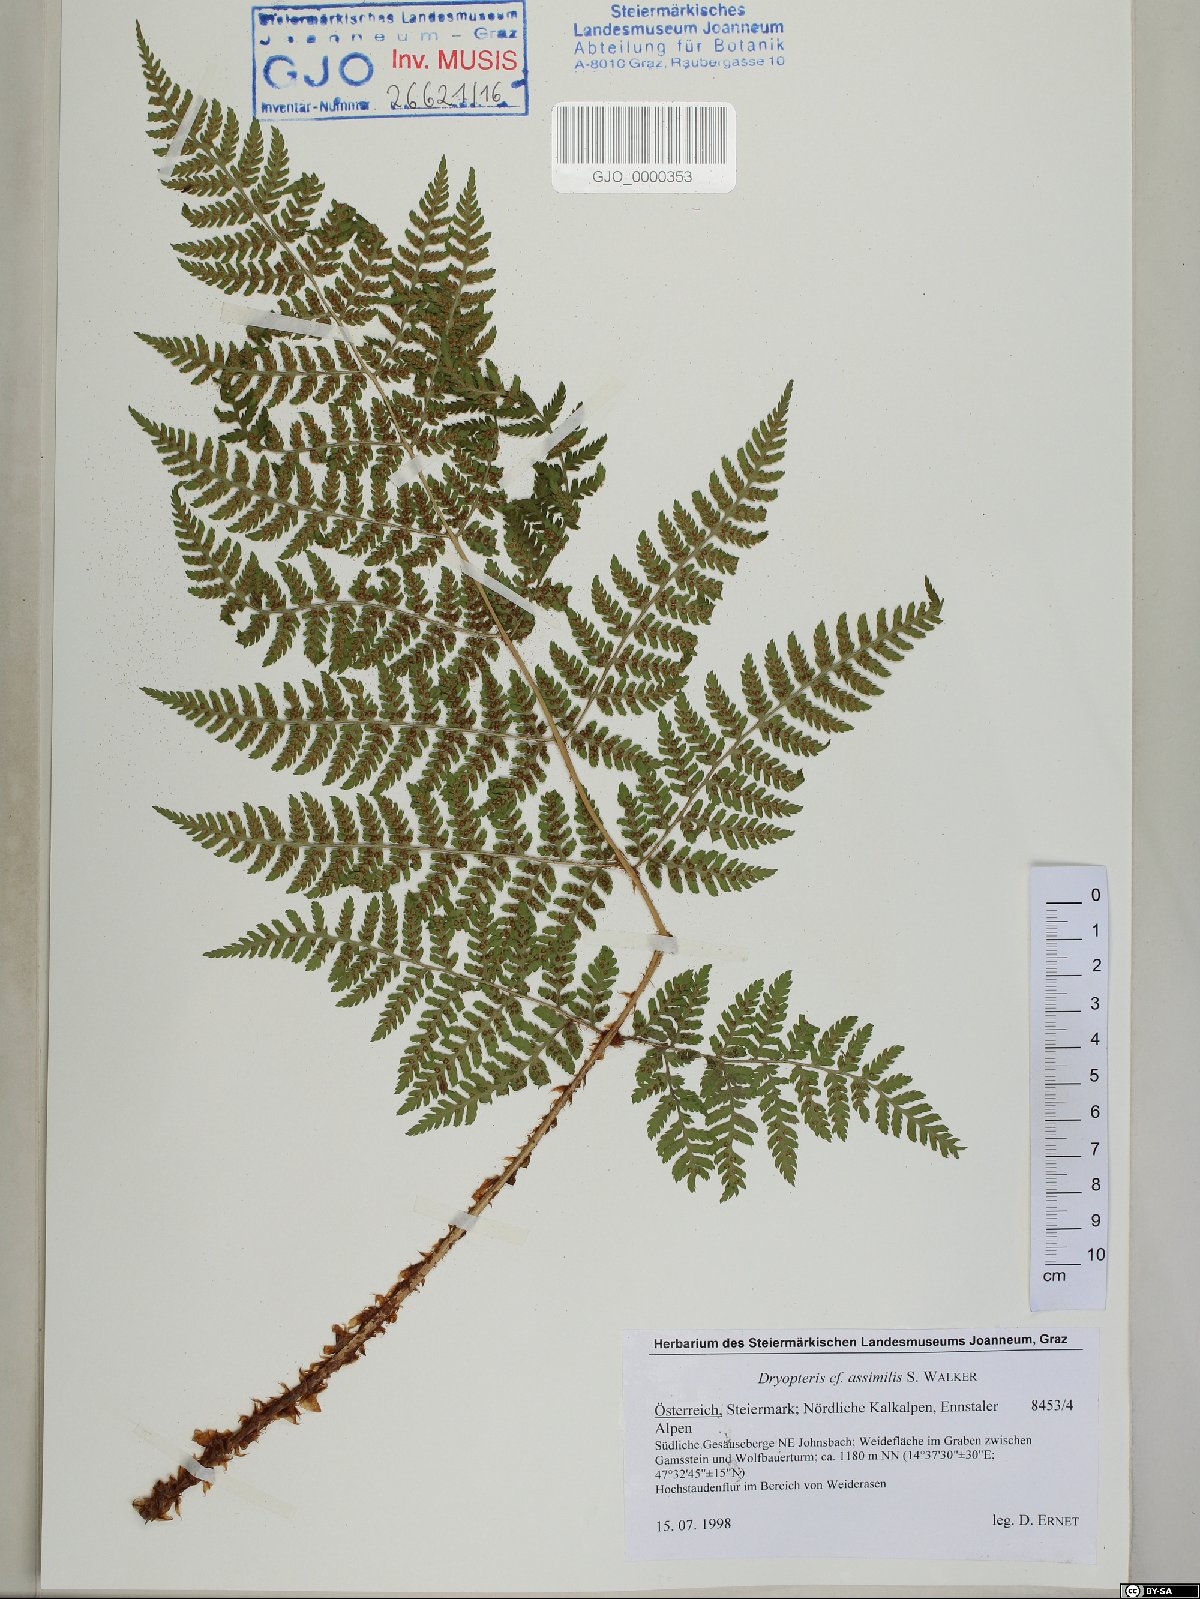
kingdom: Plantae
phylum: Tracheophyta
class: Polypodiopsida
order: Polypodiales
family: Dryopteridaceae
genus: Dryopteris
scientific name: Dryopteris expansa
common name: Northern buckler fern
